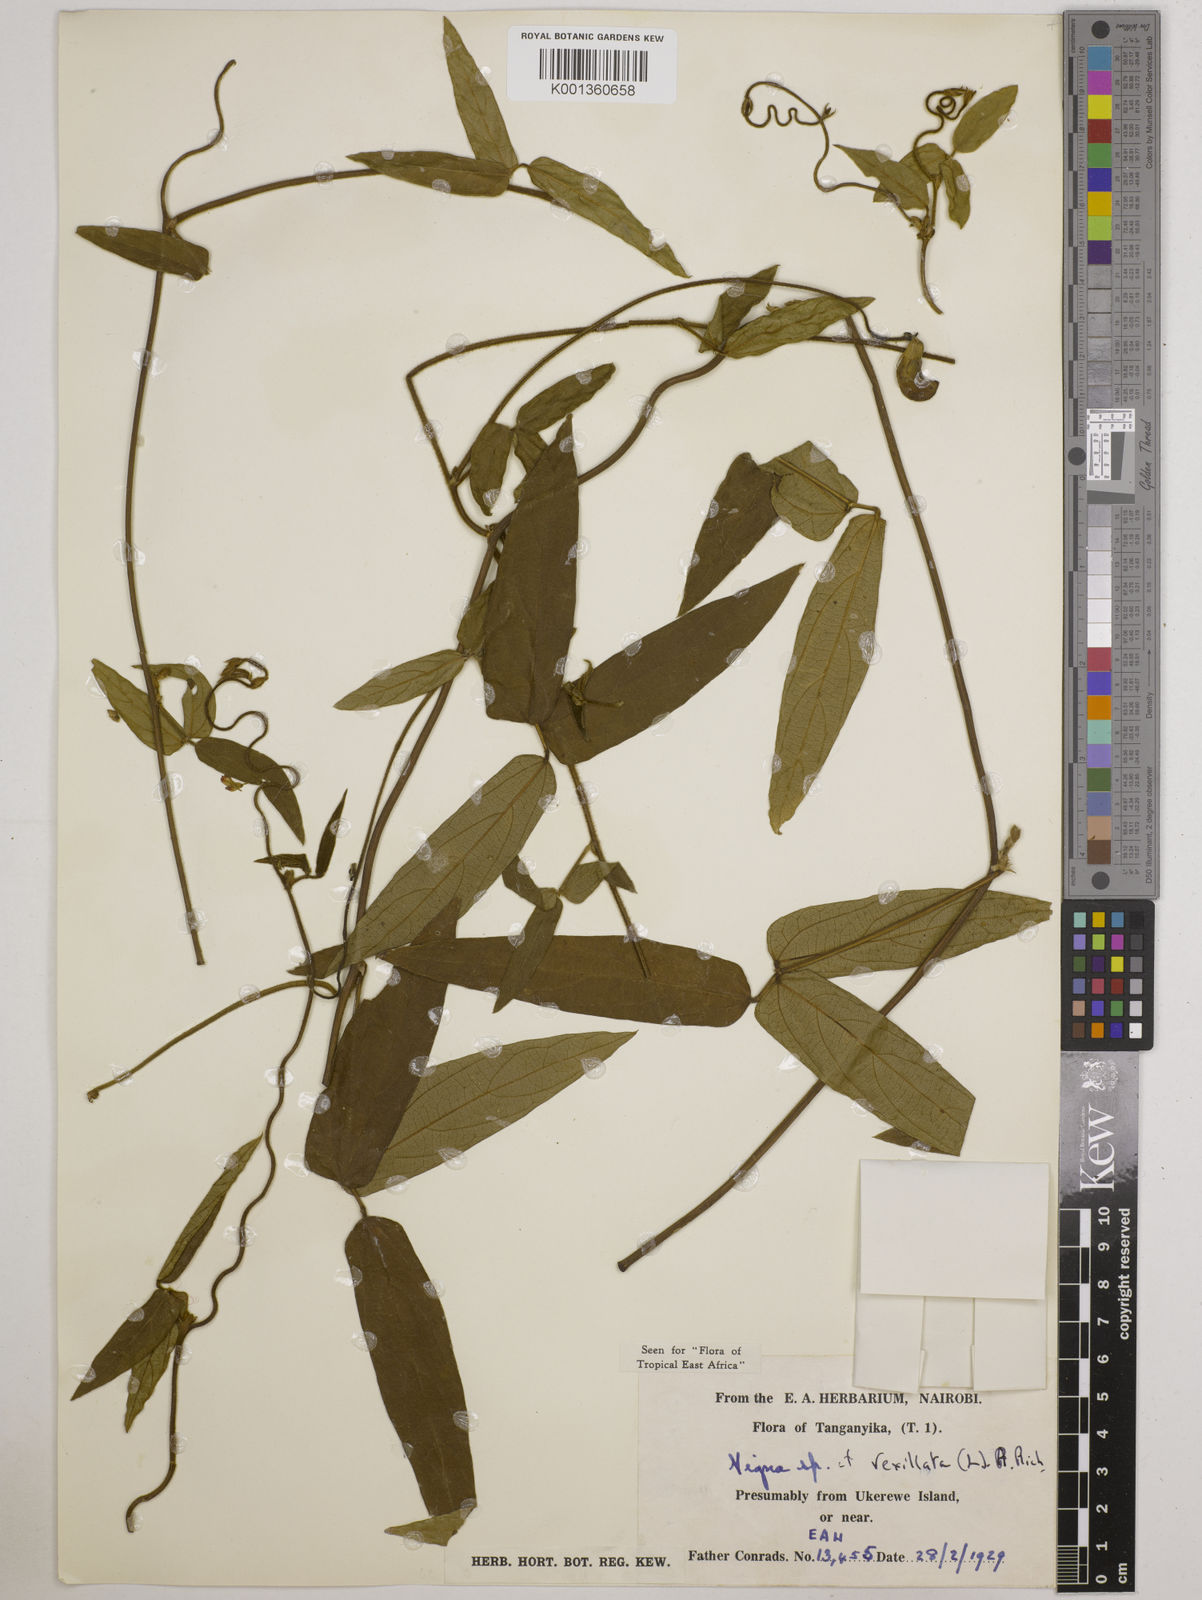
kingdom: Plantae
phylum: Tracheophyta
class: Magnoliopsida
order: Fabales
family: Fabaceae
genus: Vigna
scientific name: Vigna vexillata
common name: Zombi pea
